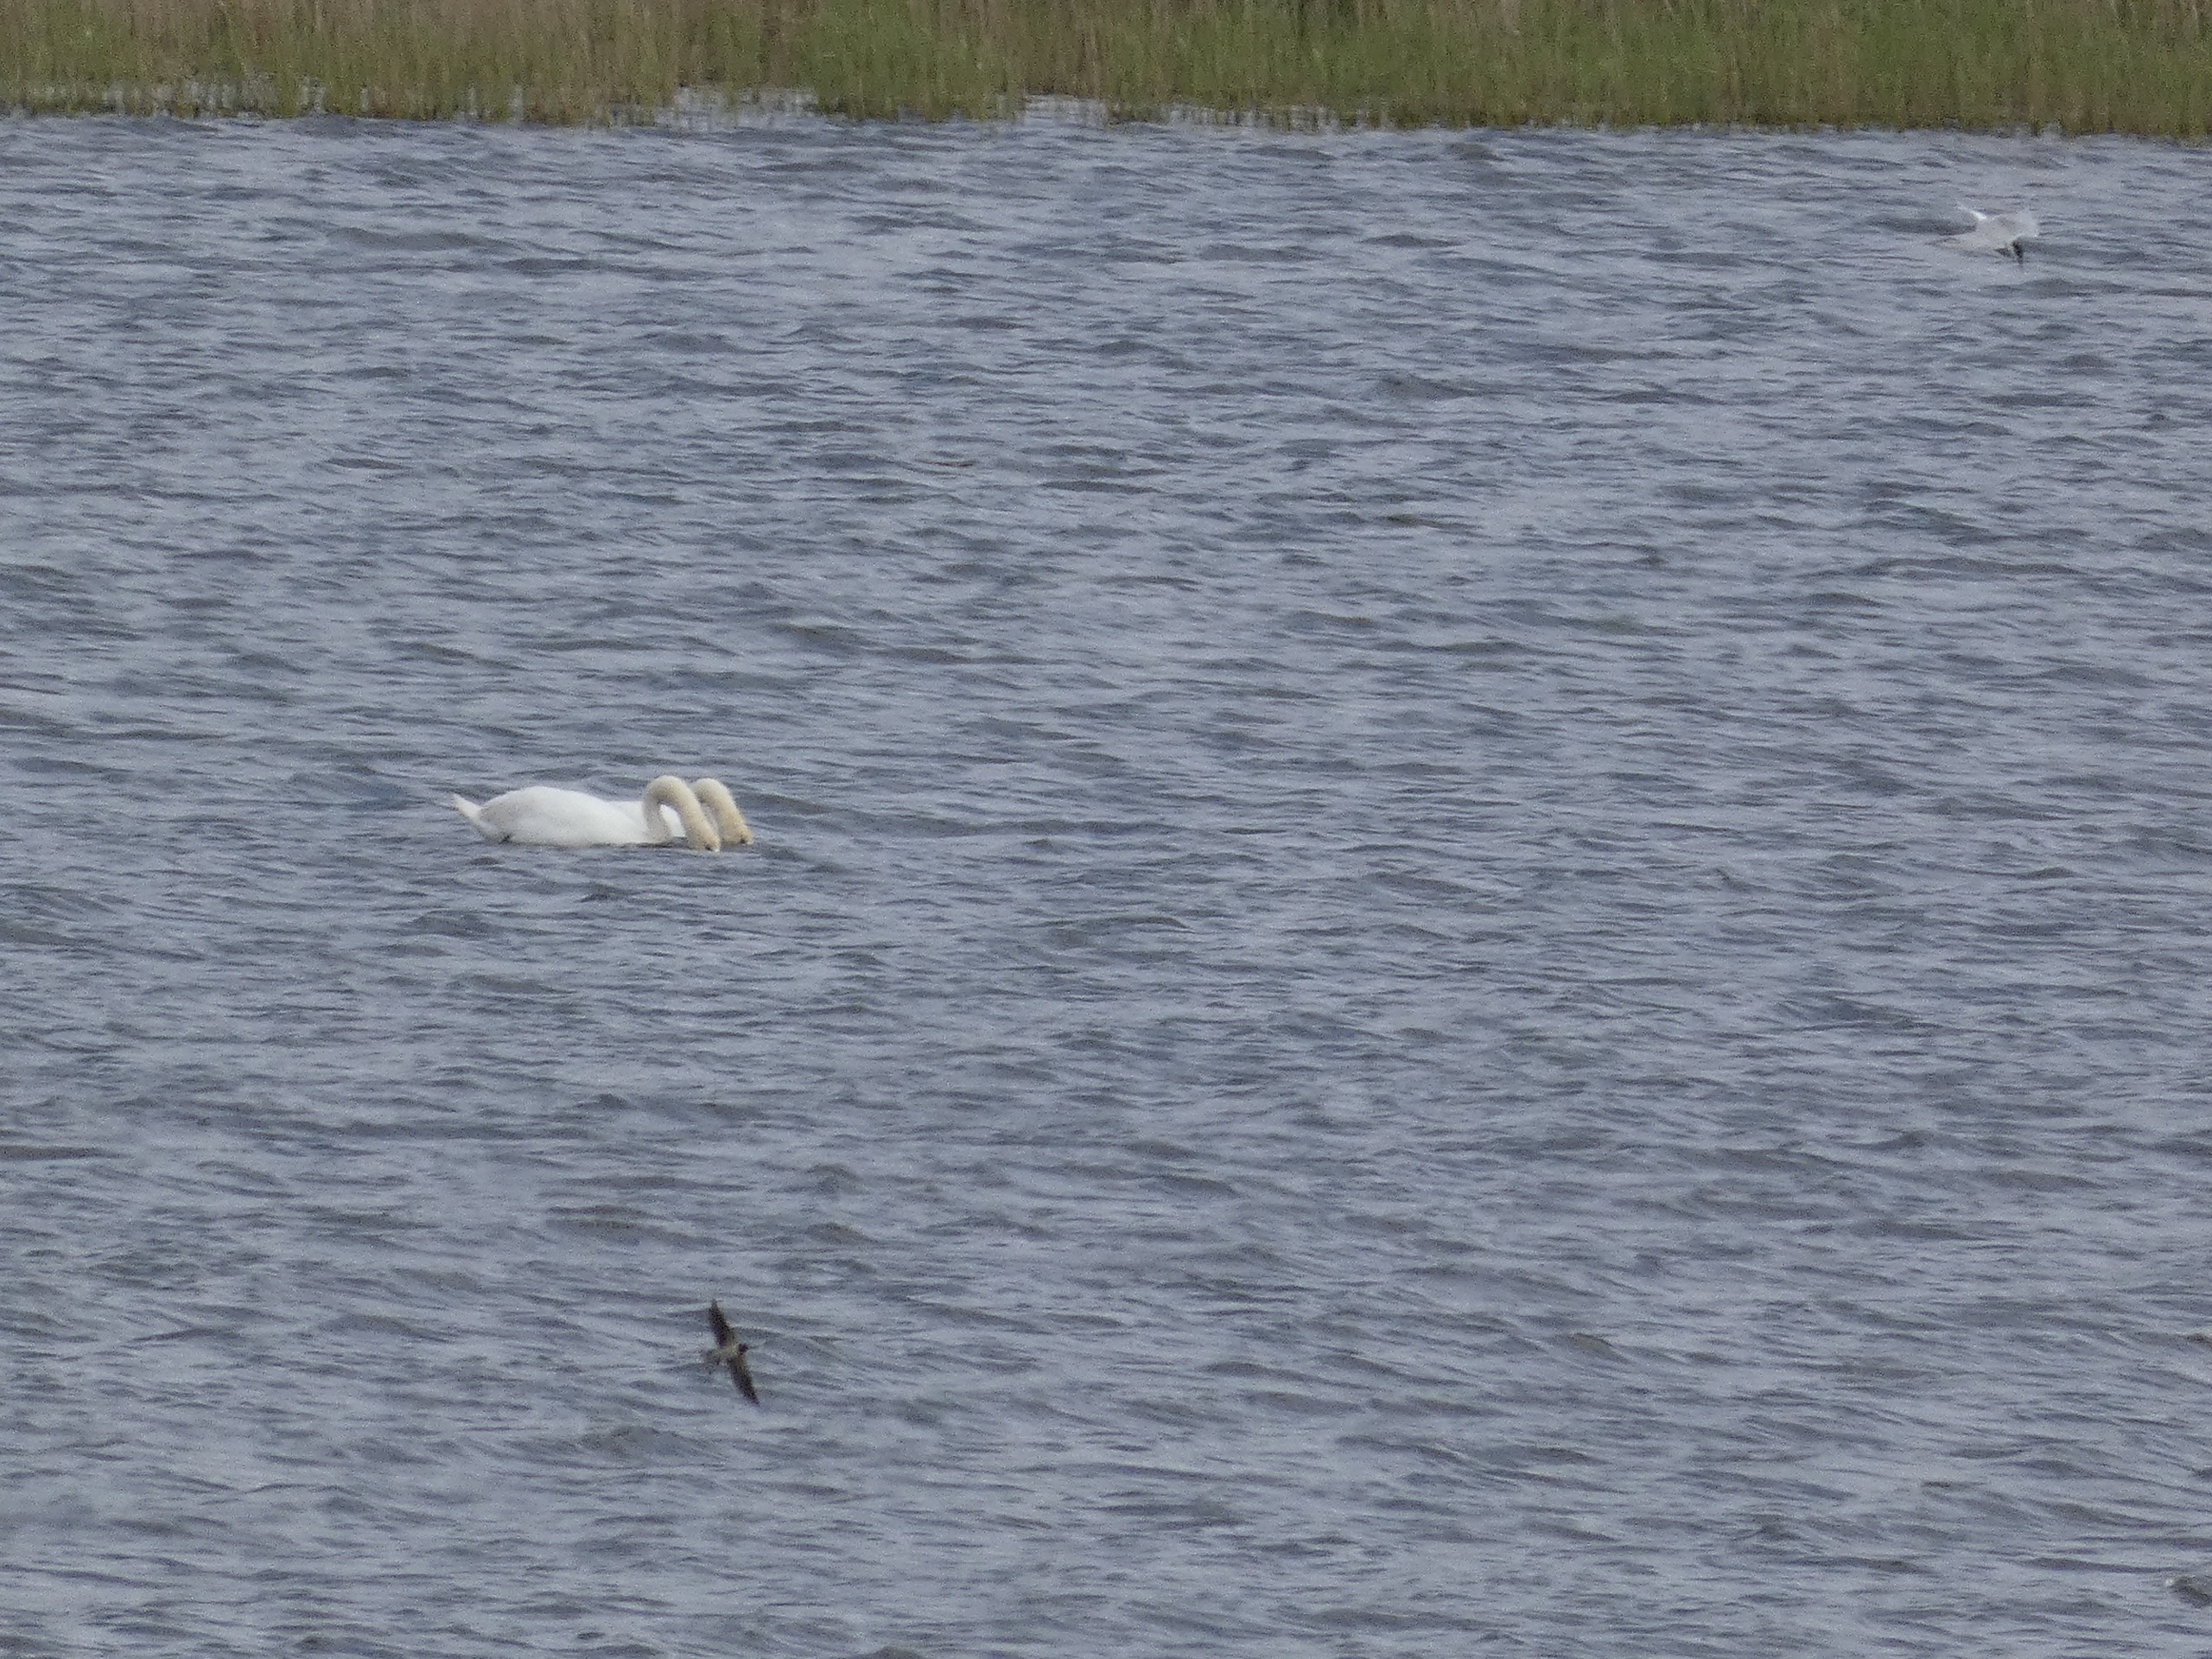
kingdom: Animalia
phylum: Chordata
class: Aves
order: Passeriformes
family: Hirundinidae
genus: Hirundo
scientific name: Hirundo rustica
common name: Landsvale
